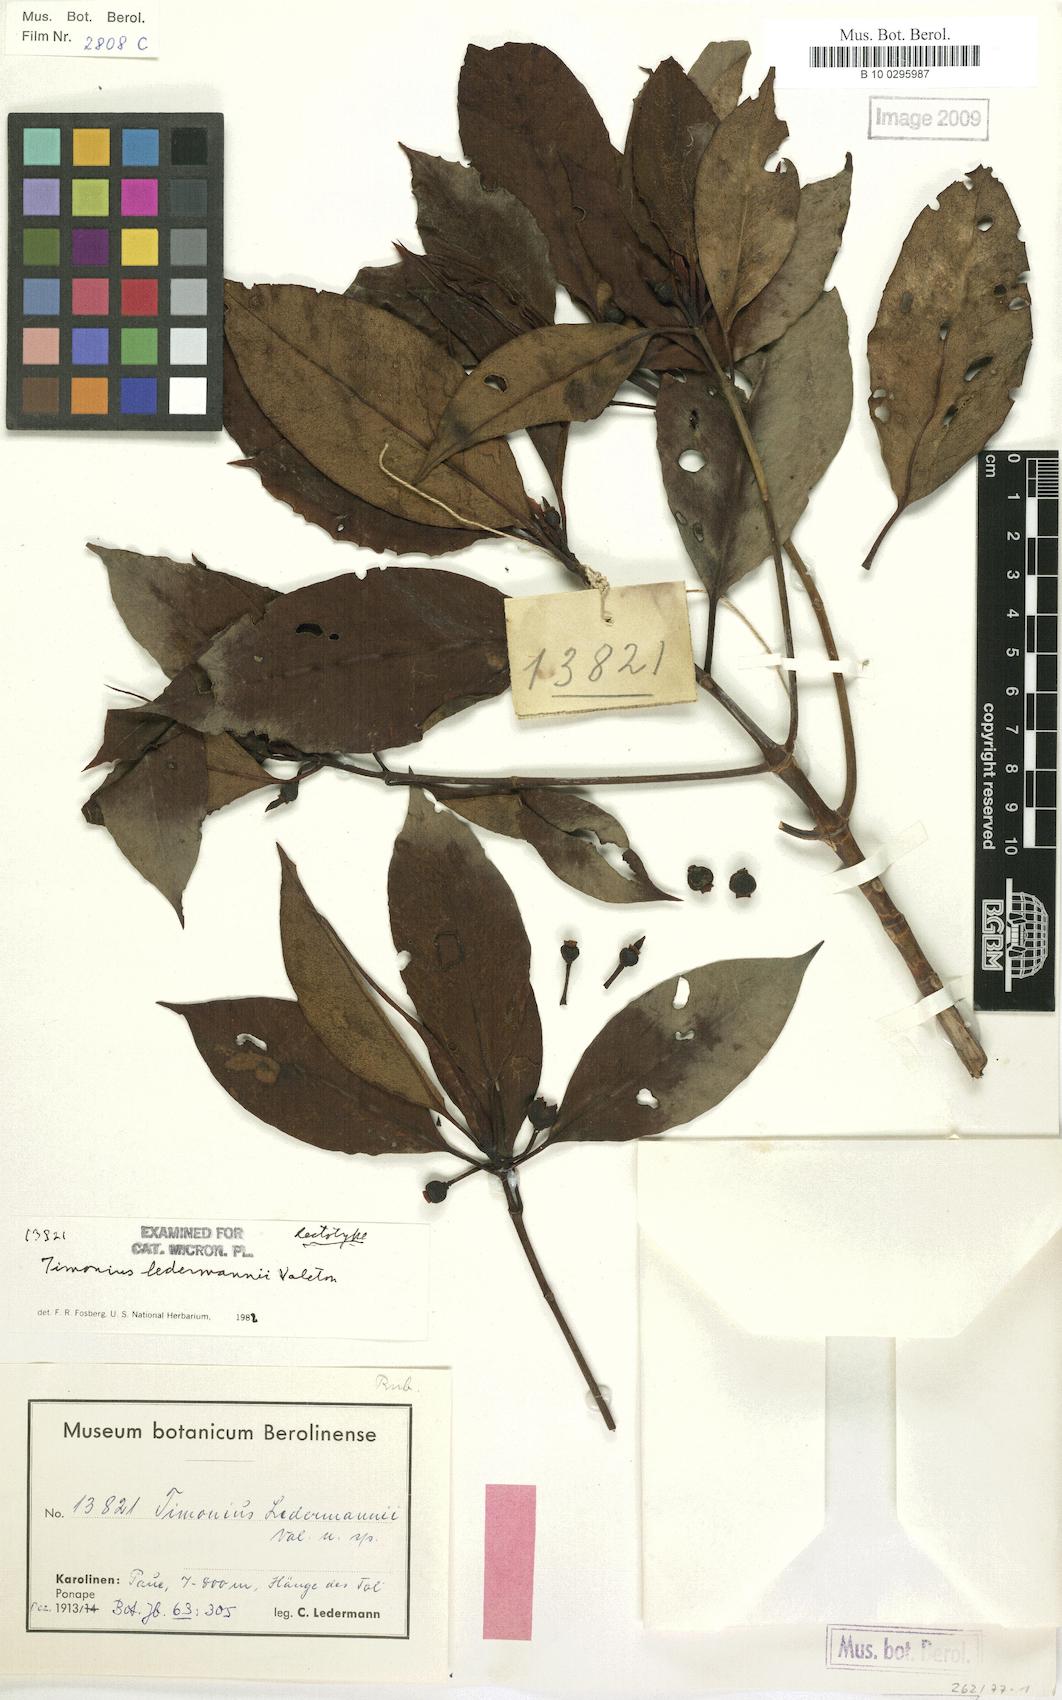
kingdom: Plantae
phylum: Tracheophyta
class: Magnoliopsida
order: Gentianales
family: Rubiaceae
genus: Timonius
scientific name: Timonius ledermannii
